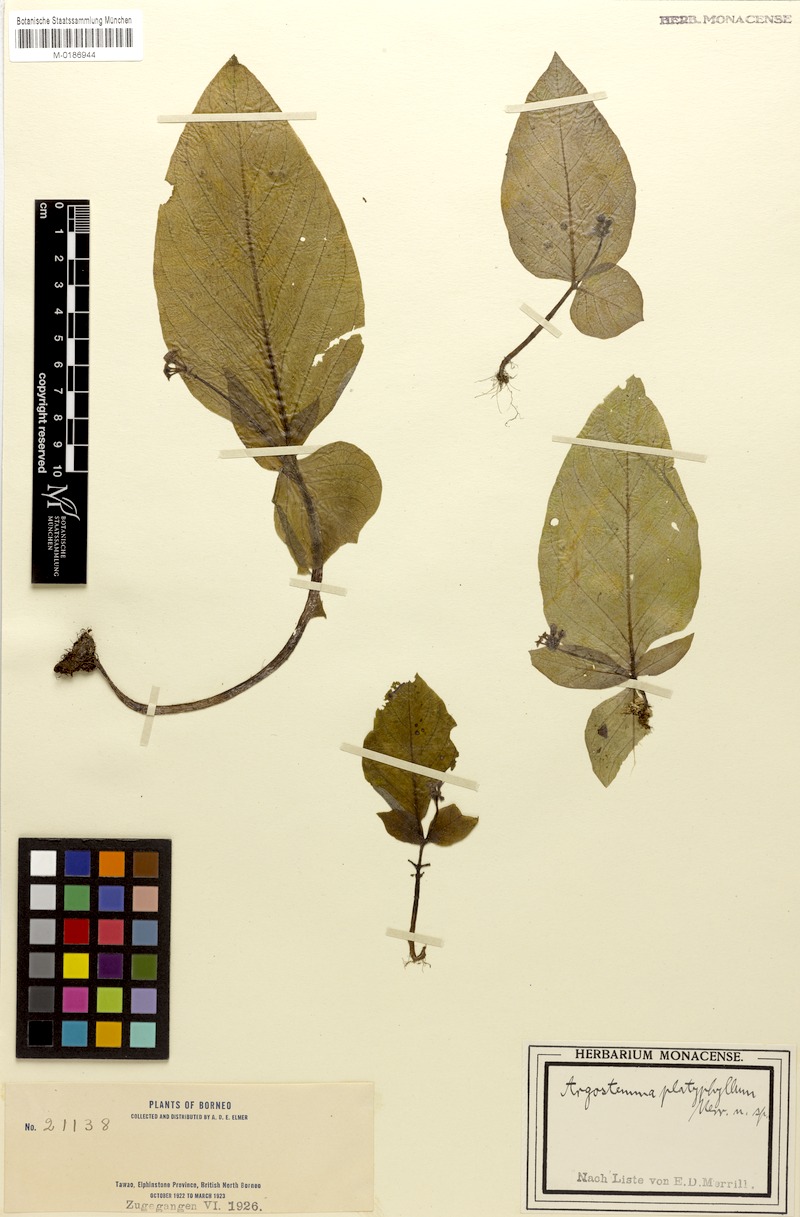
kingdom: Plantae
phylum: Tracheophyta
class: Magnoliopsida
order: Gentianales
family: Rubiaceae
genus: Argostemma
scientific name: Argostemma neurocalyx
